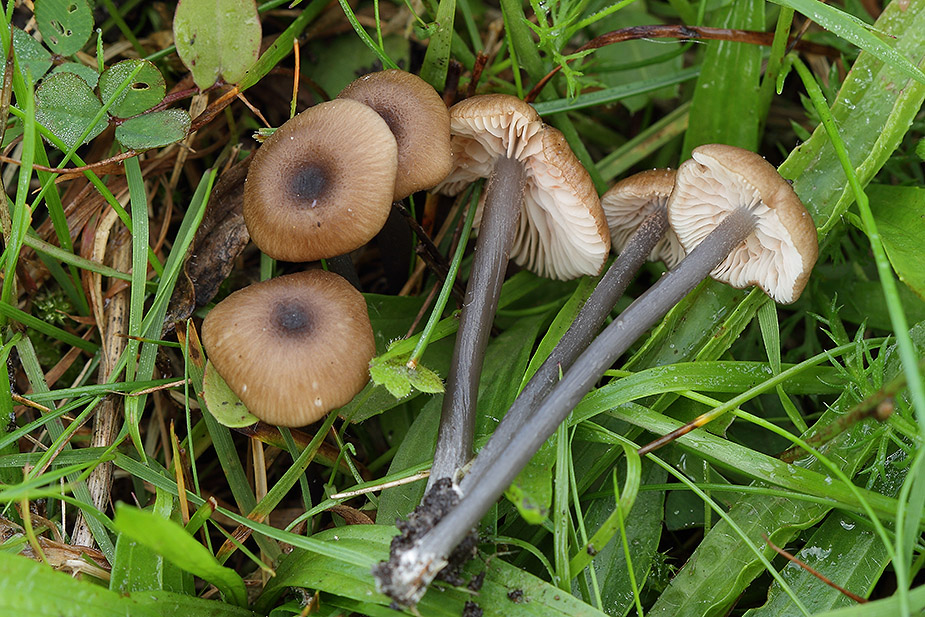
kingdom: Fungi
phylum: Basidiomycota
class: Agaricomycetes
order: Agaricales
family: Entolomataceae
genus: Entoloma
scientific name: Entoloma lividocyanulum
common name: mørkøjet rødblad
